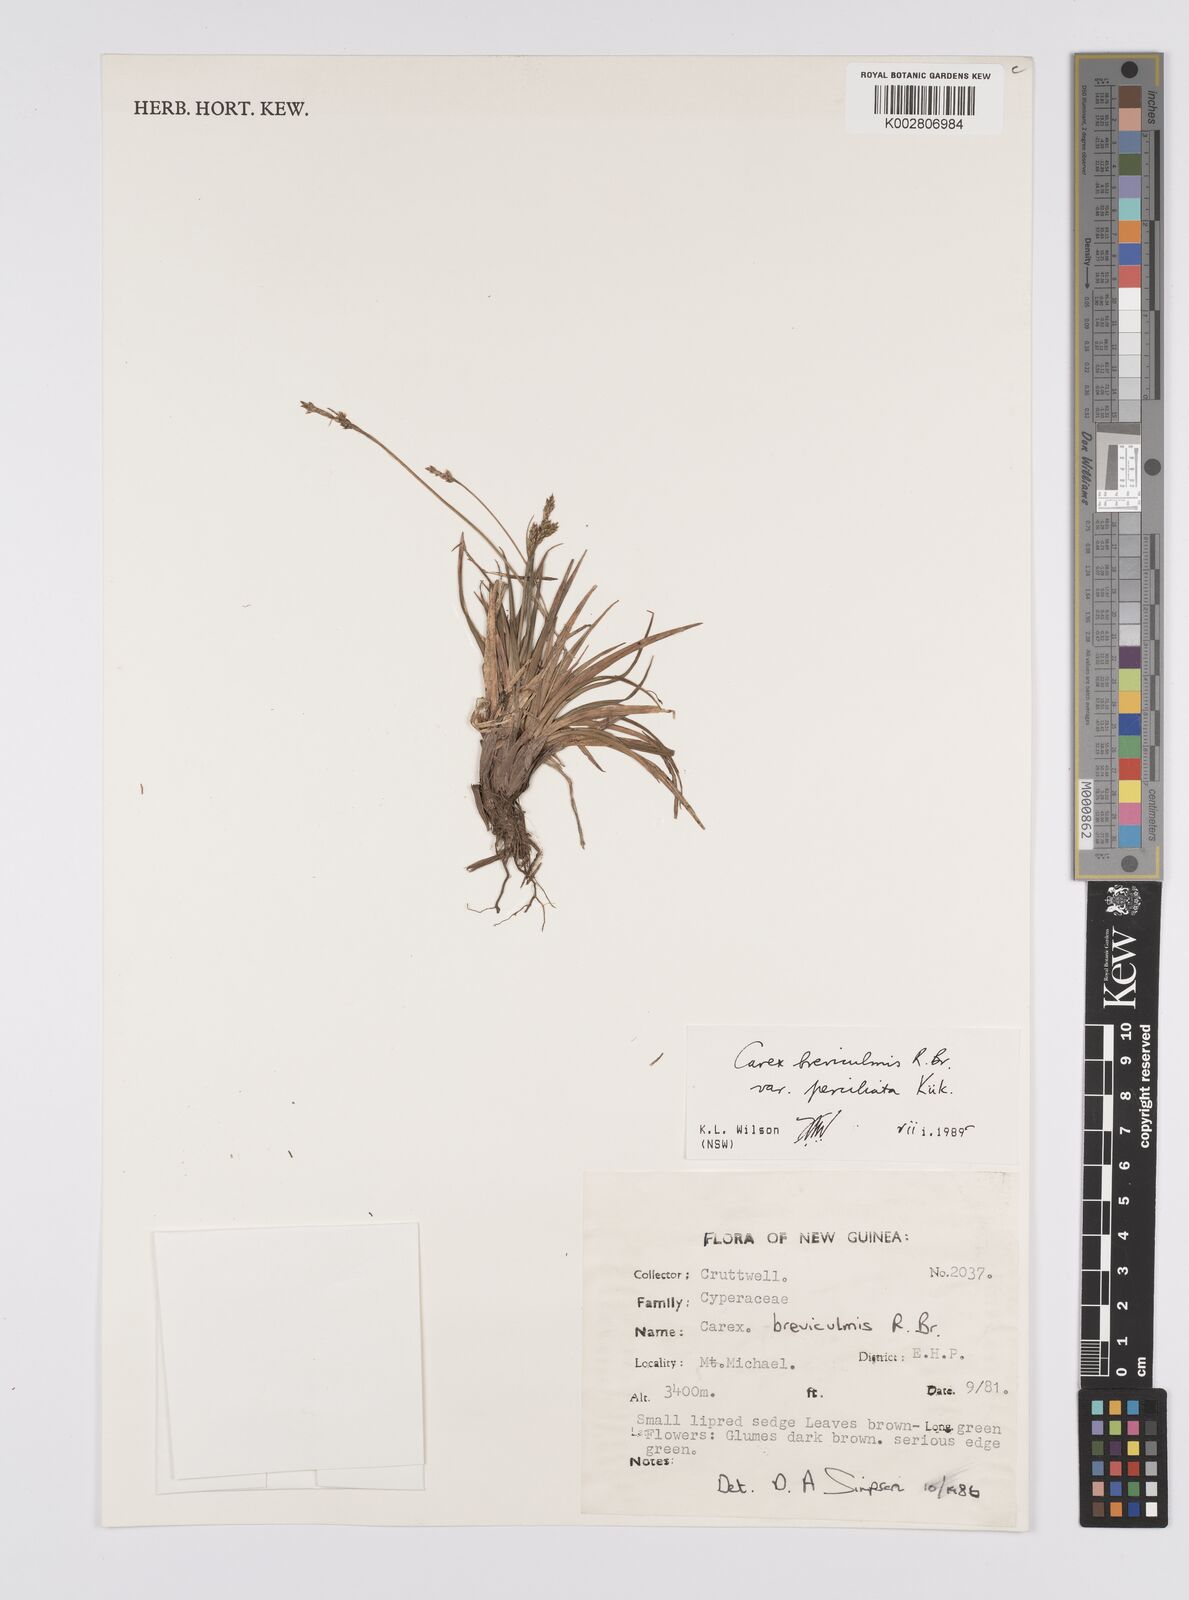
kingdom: Plantae
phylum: Tracheophyta
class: Liliopsida
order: Poales
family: Cyperaceae
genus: Carex
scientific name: Carex breviculmis
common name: Asian shortstem sedge
